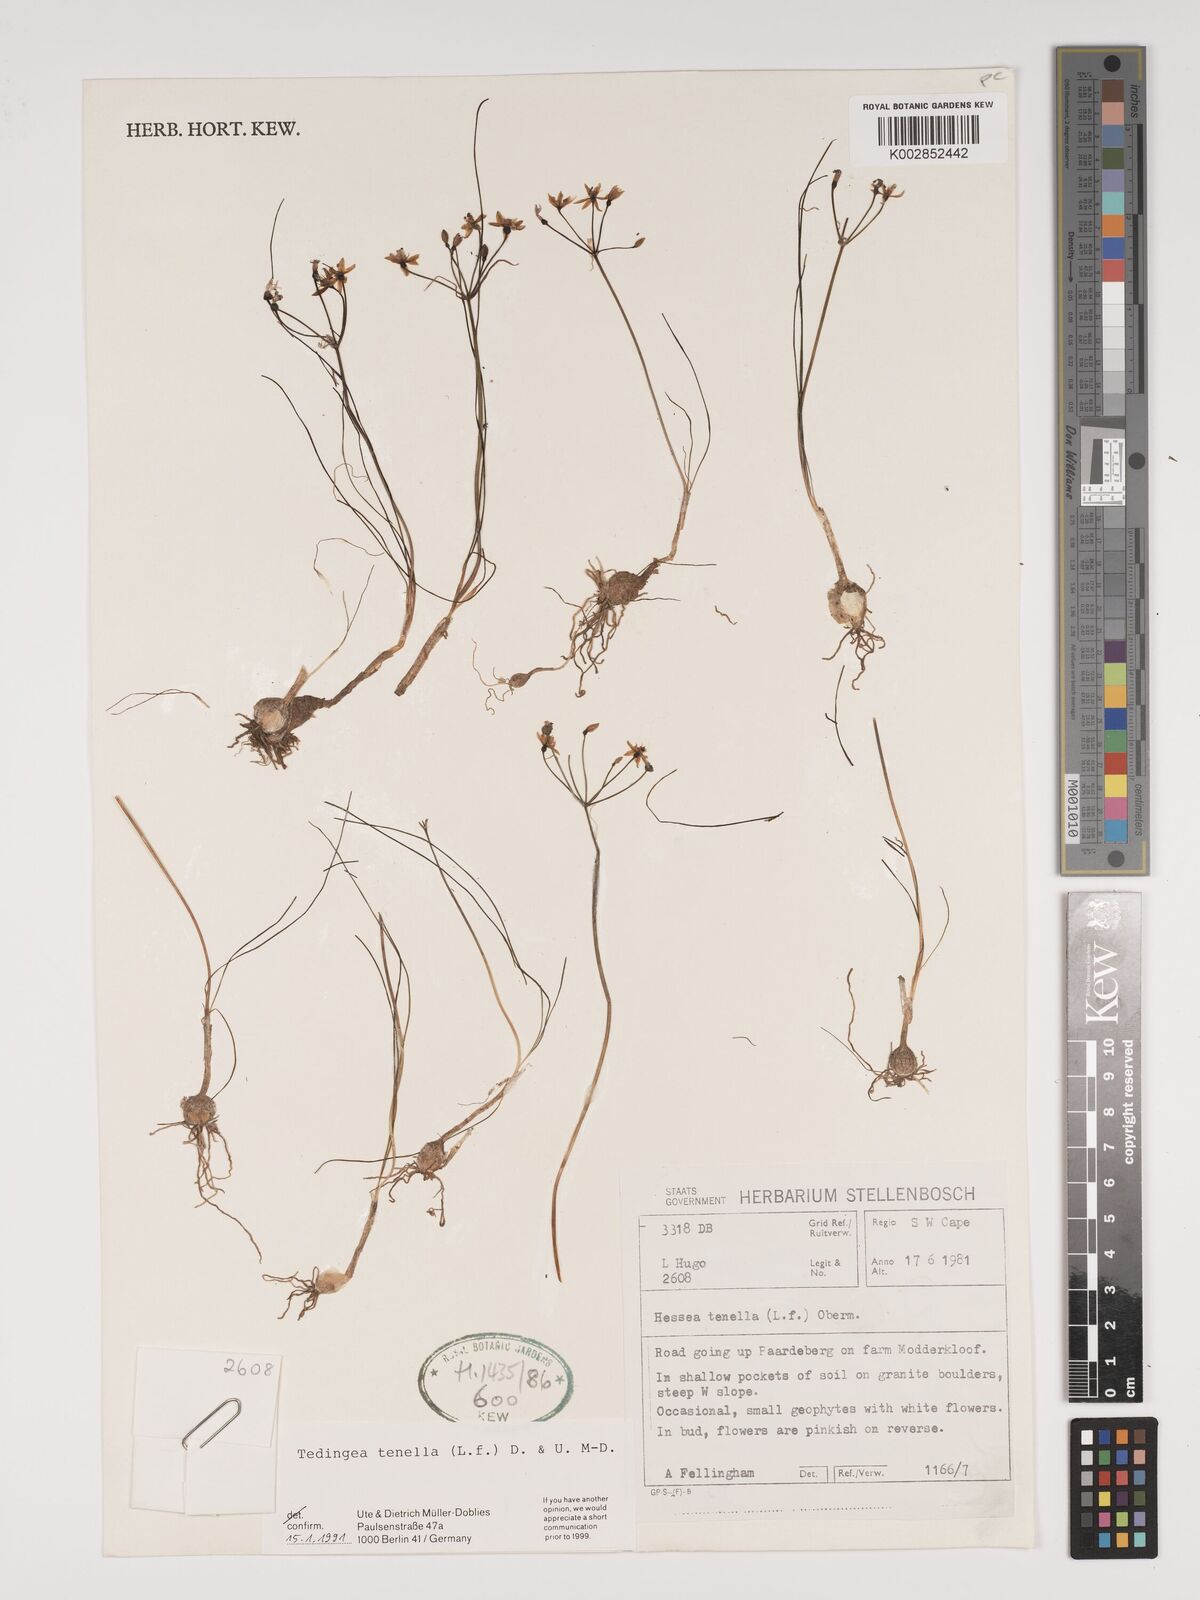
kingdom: Plantae
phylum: Tracheophyta
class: Liliopsida
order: Asparagales
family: Amaryllidaceae
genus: Strumaria
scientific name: Strumaria tenella
